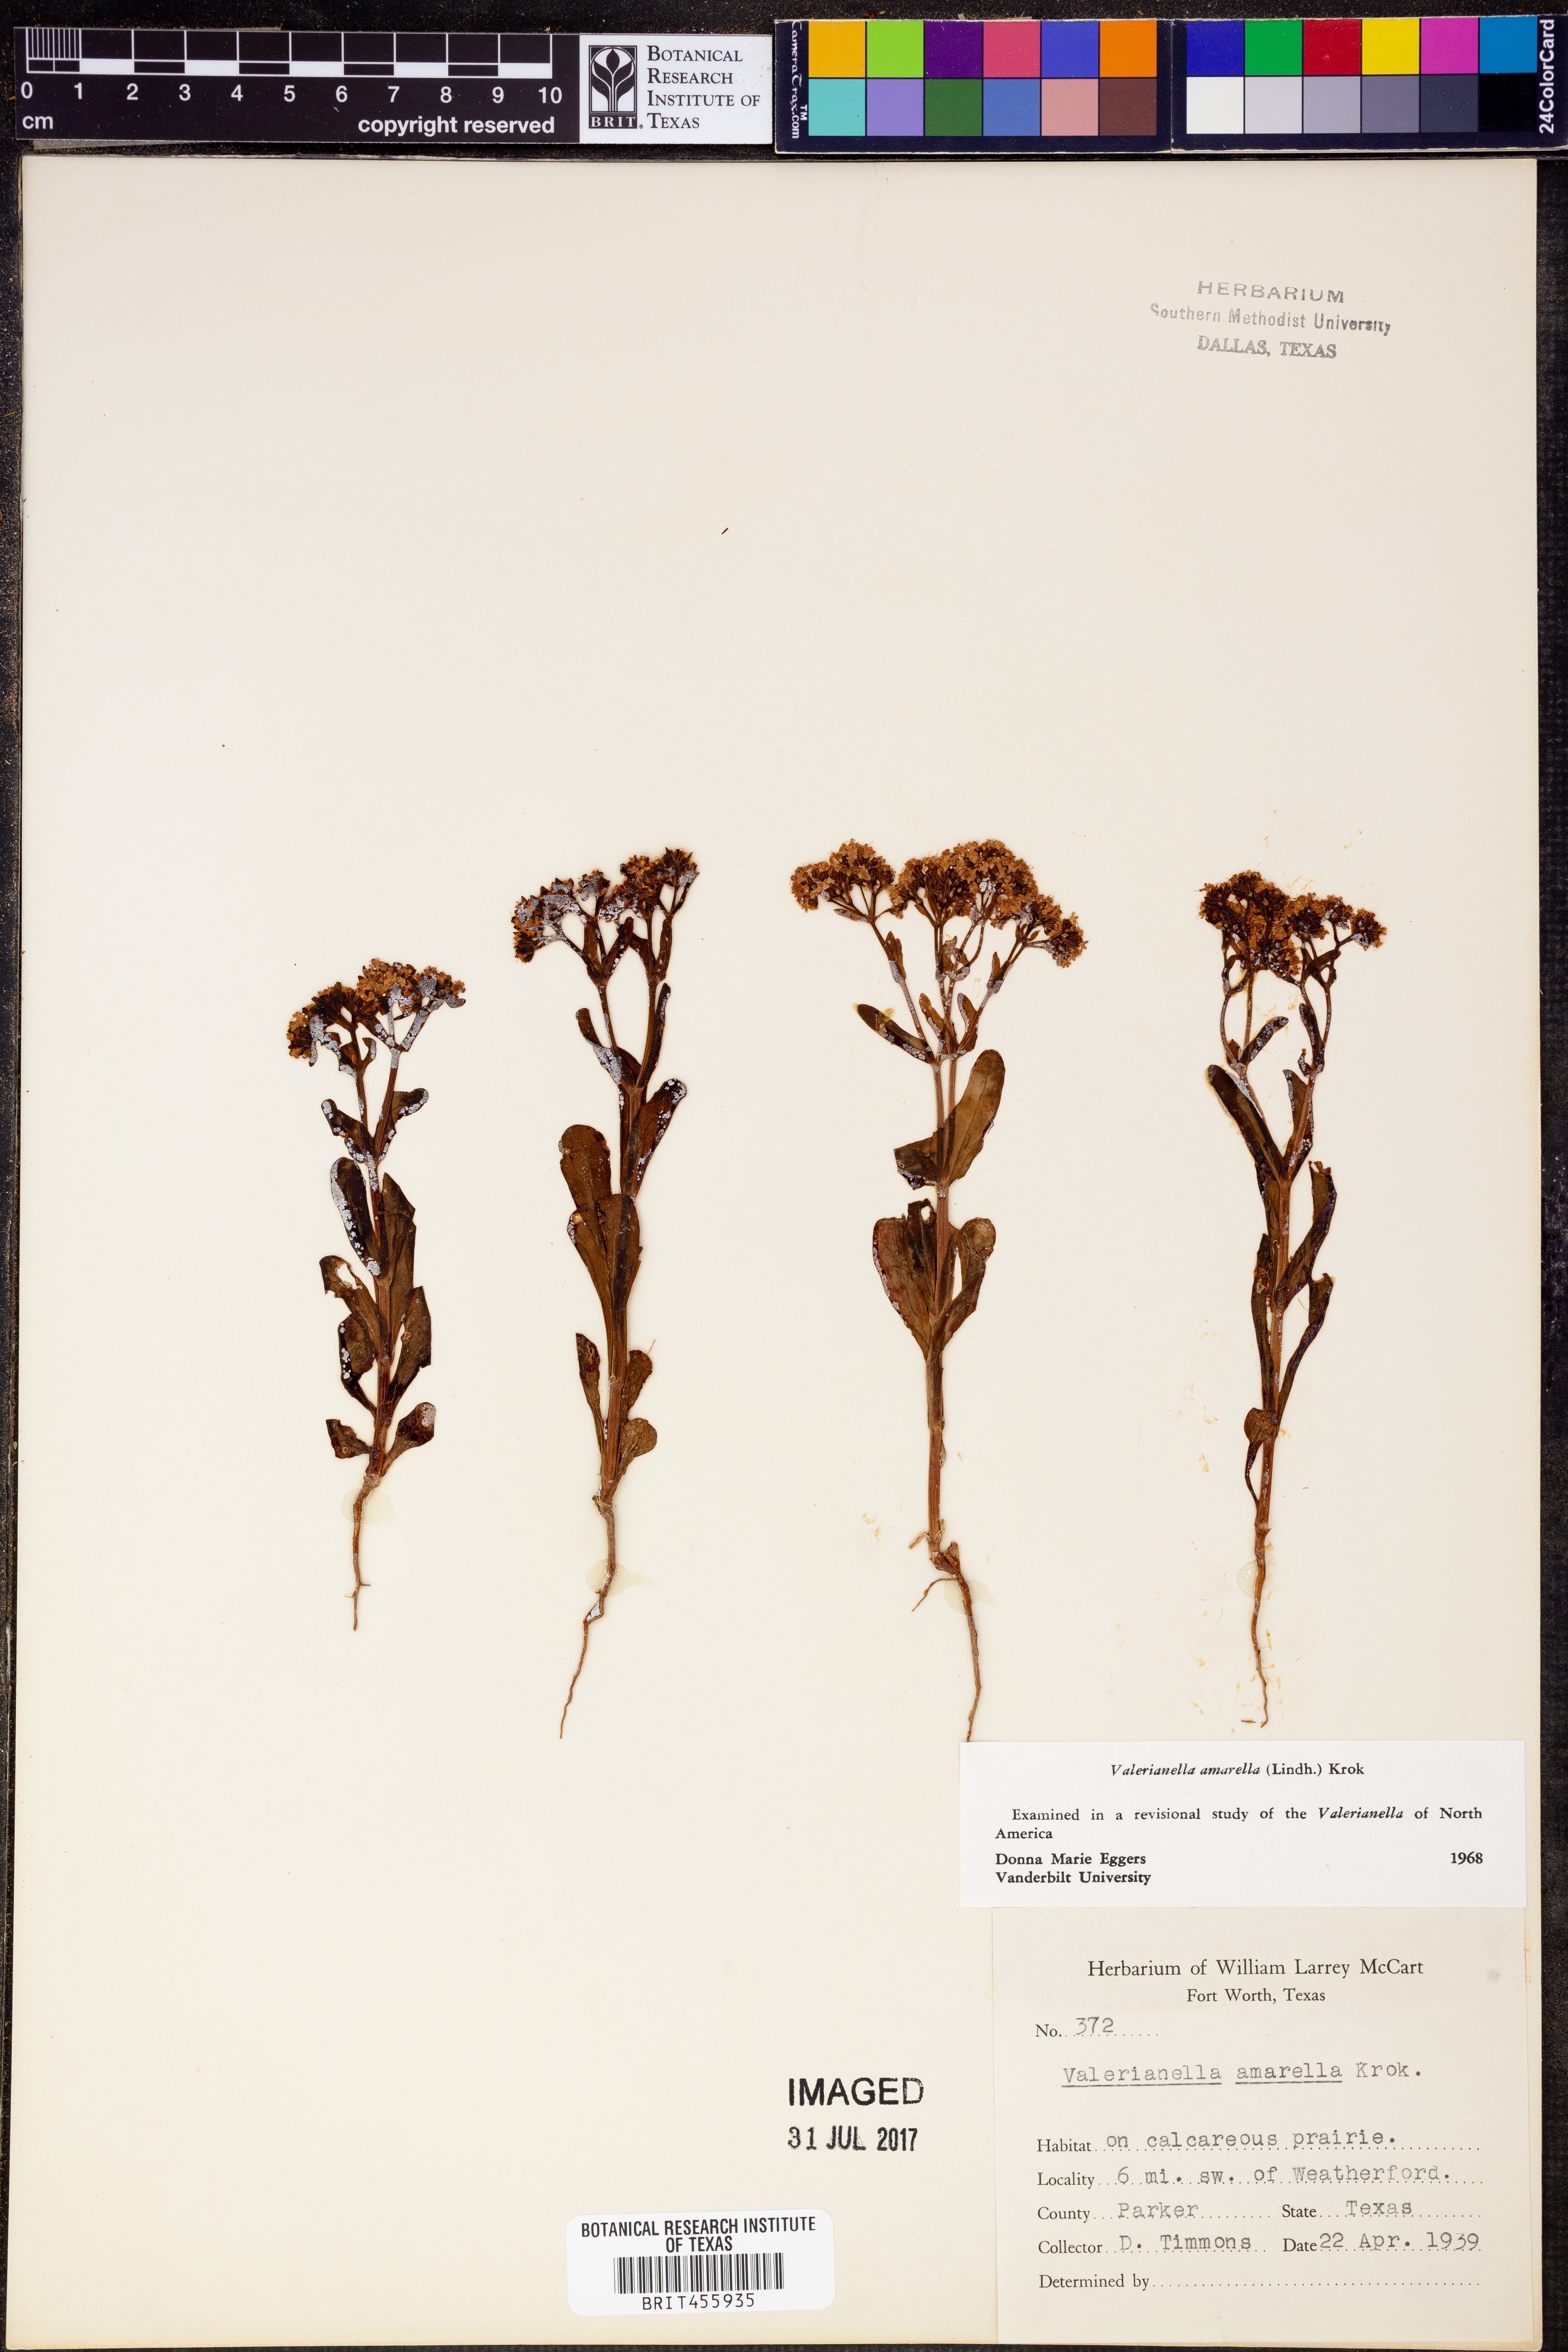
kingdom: Plantae
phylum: Tracheophyta
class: Magnoliopsida
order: Dipsacales
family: Caprifoliaceae
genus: Valerianella
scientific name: Valerianella amarella
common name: Hariy cornsalad
